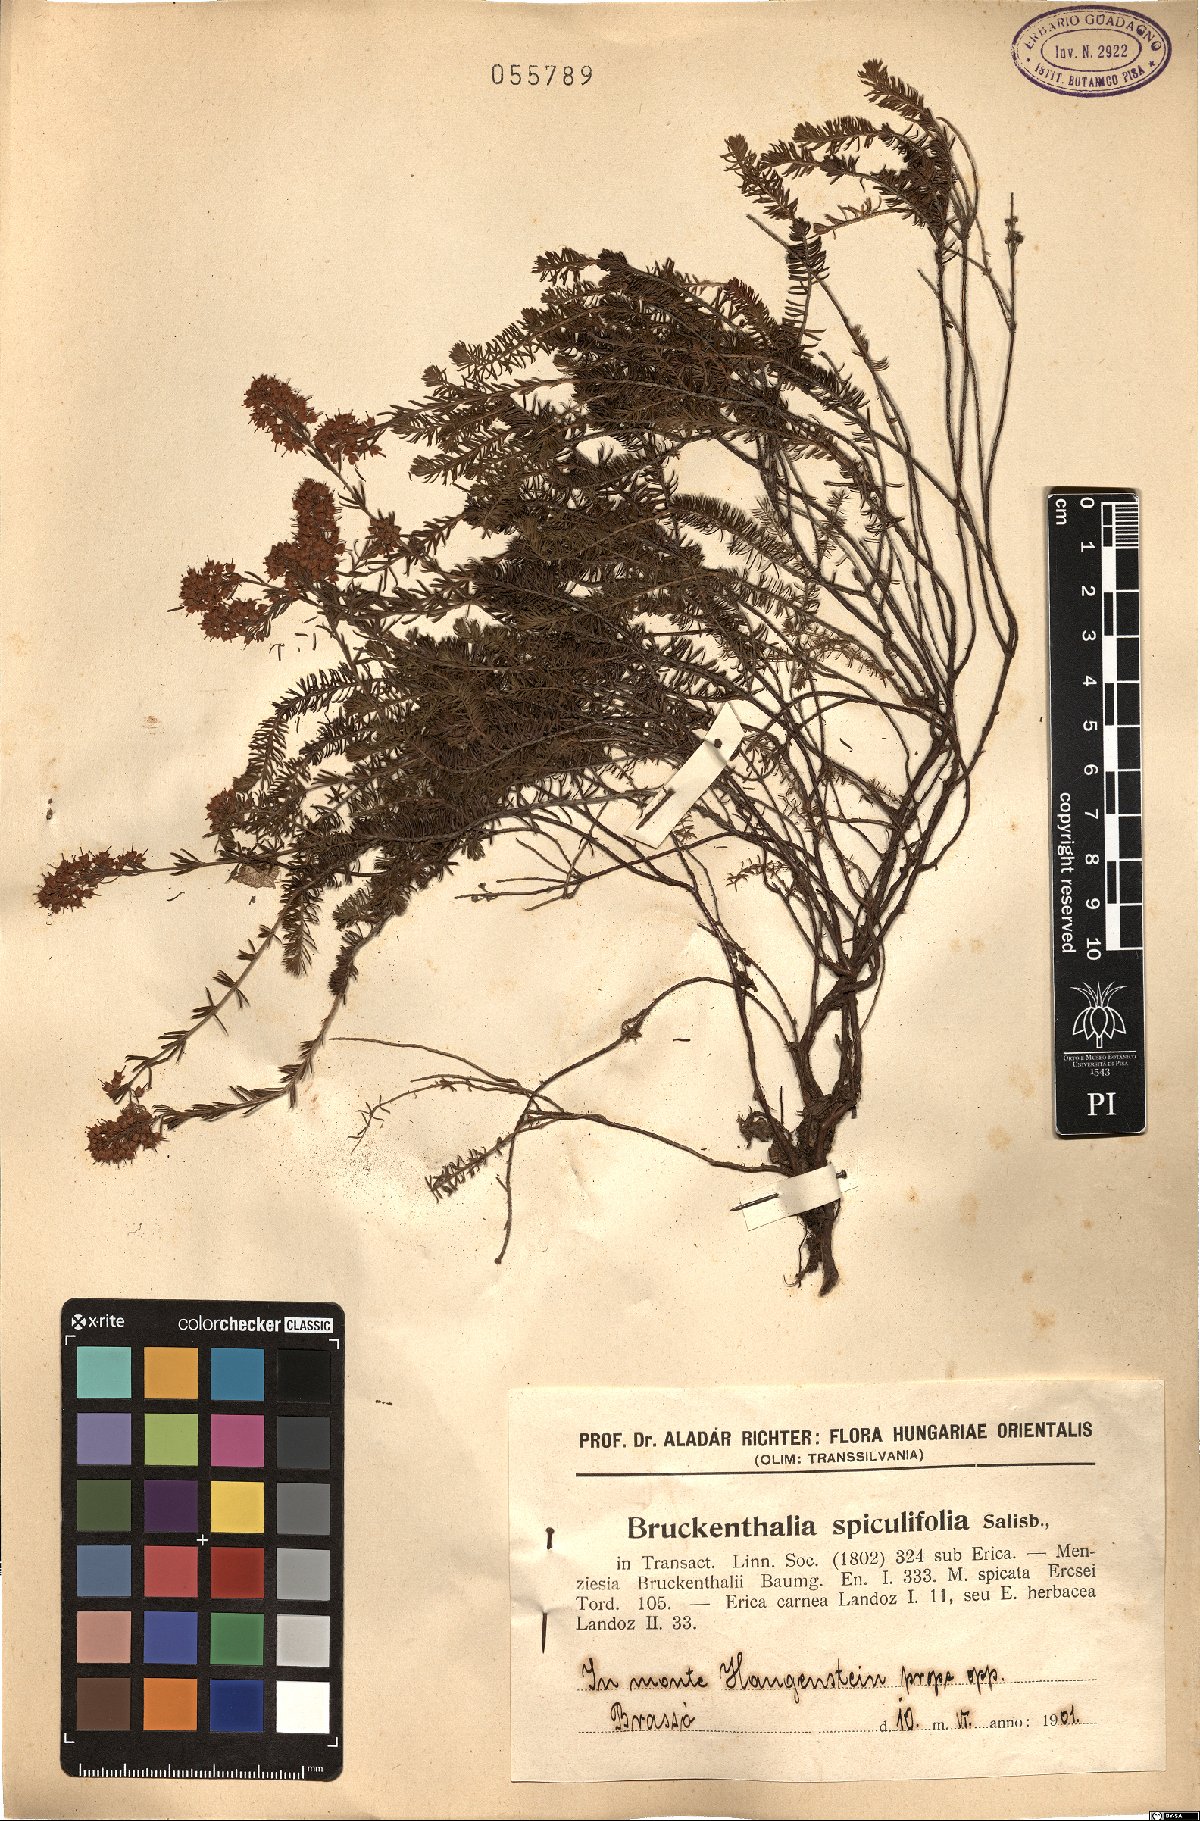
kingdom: Plantae
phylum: Tracheophyta
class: Magnoliopsida
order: Ericales
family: Ericaceae
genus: Erica
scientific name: Erica spiculifolia
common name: Spike heath
